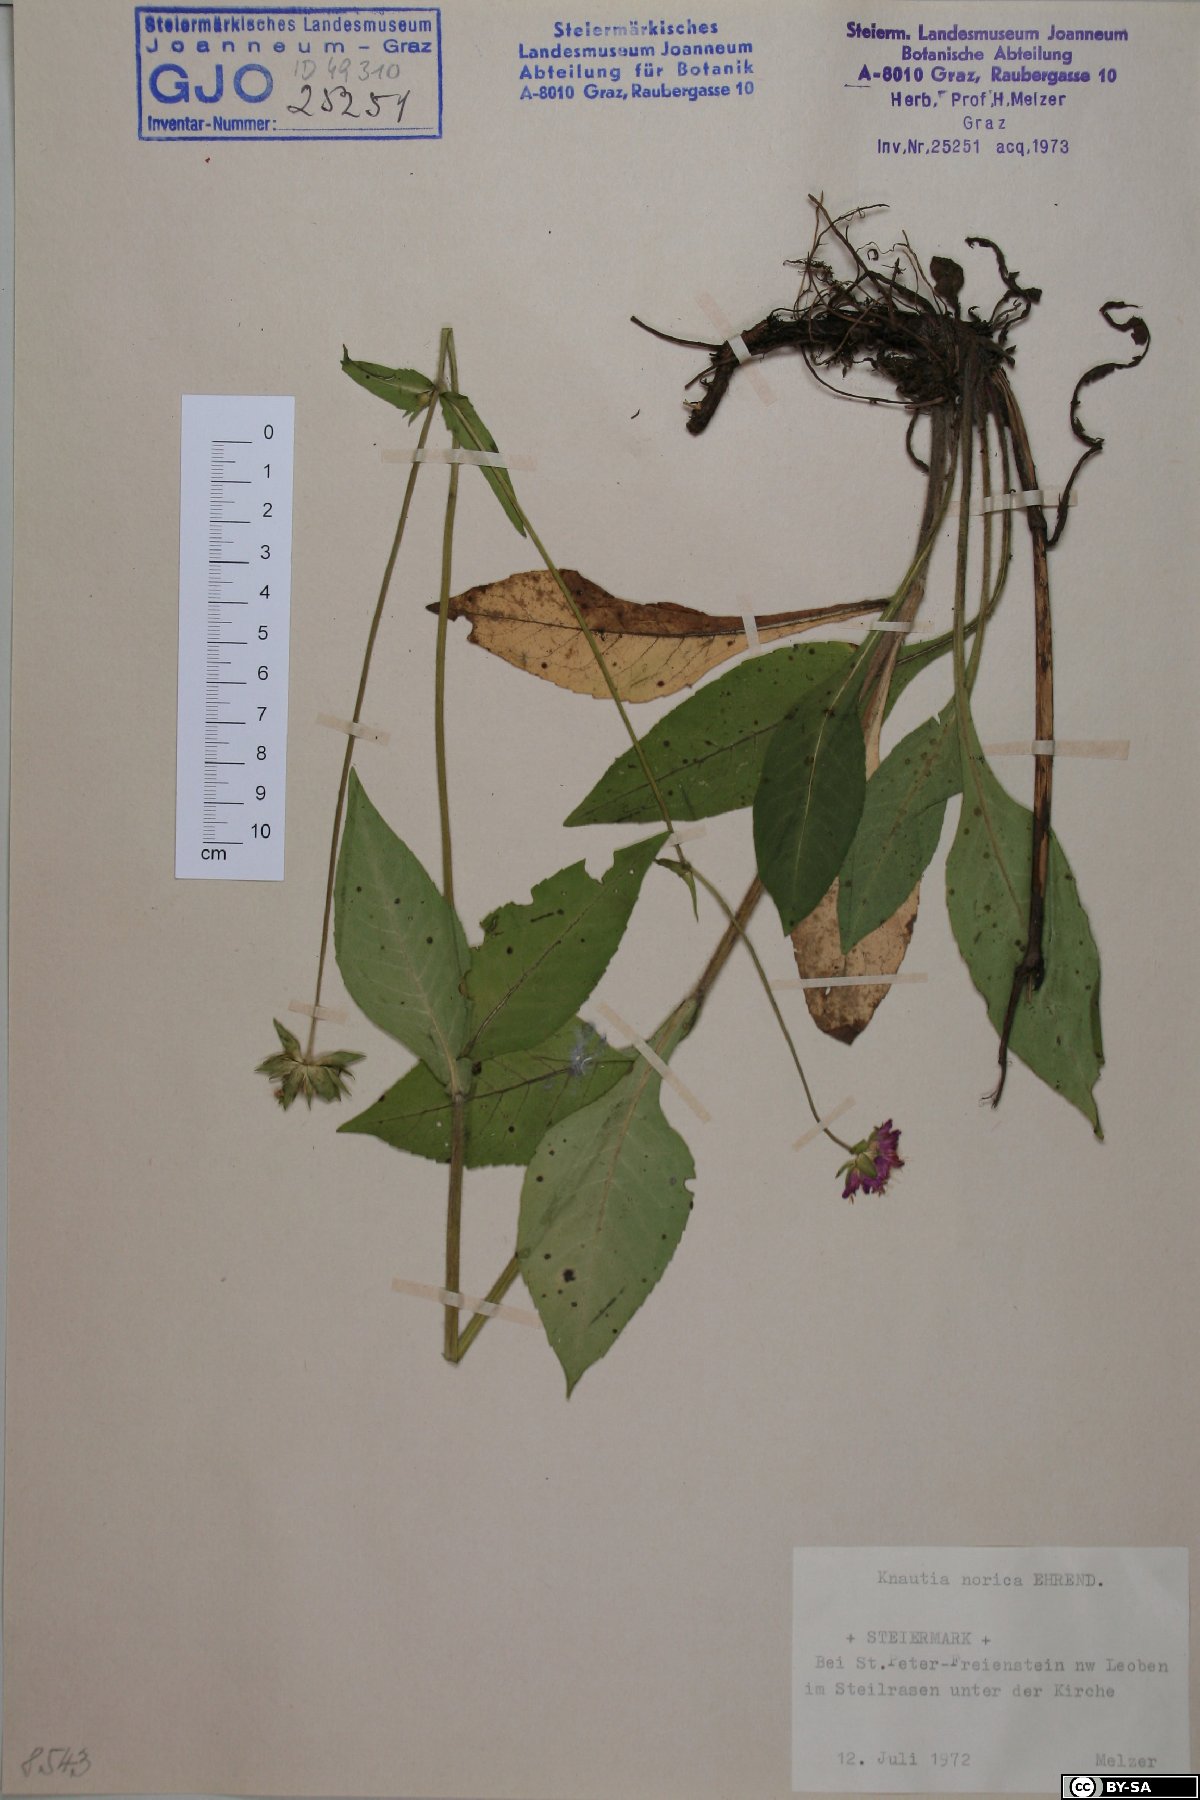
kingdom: Plantae
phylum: Tracheophyta
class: Magnoliopsida
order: Dipsacales
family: Caprifoliaceae
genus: Knautia
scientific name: Knautia norica
